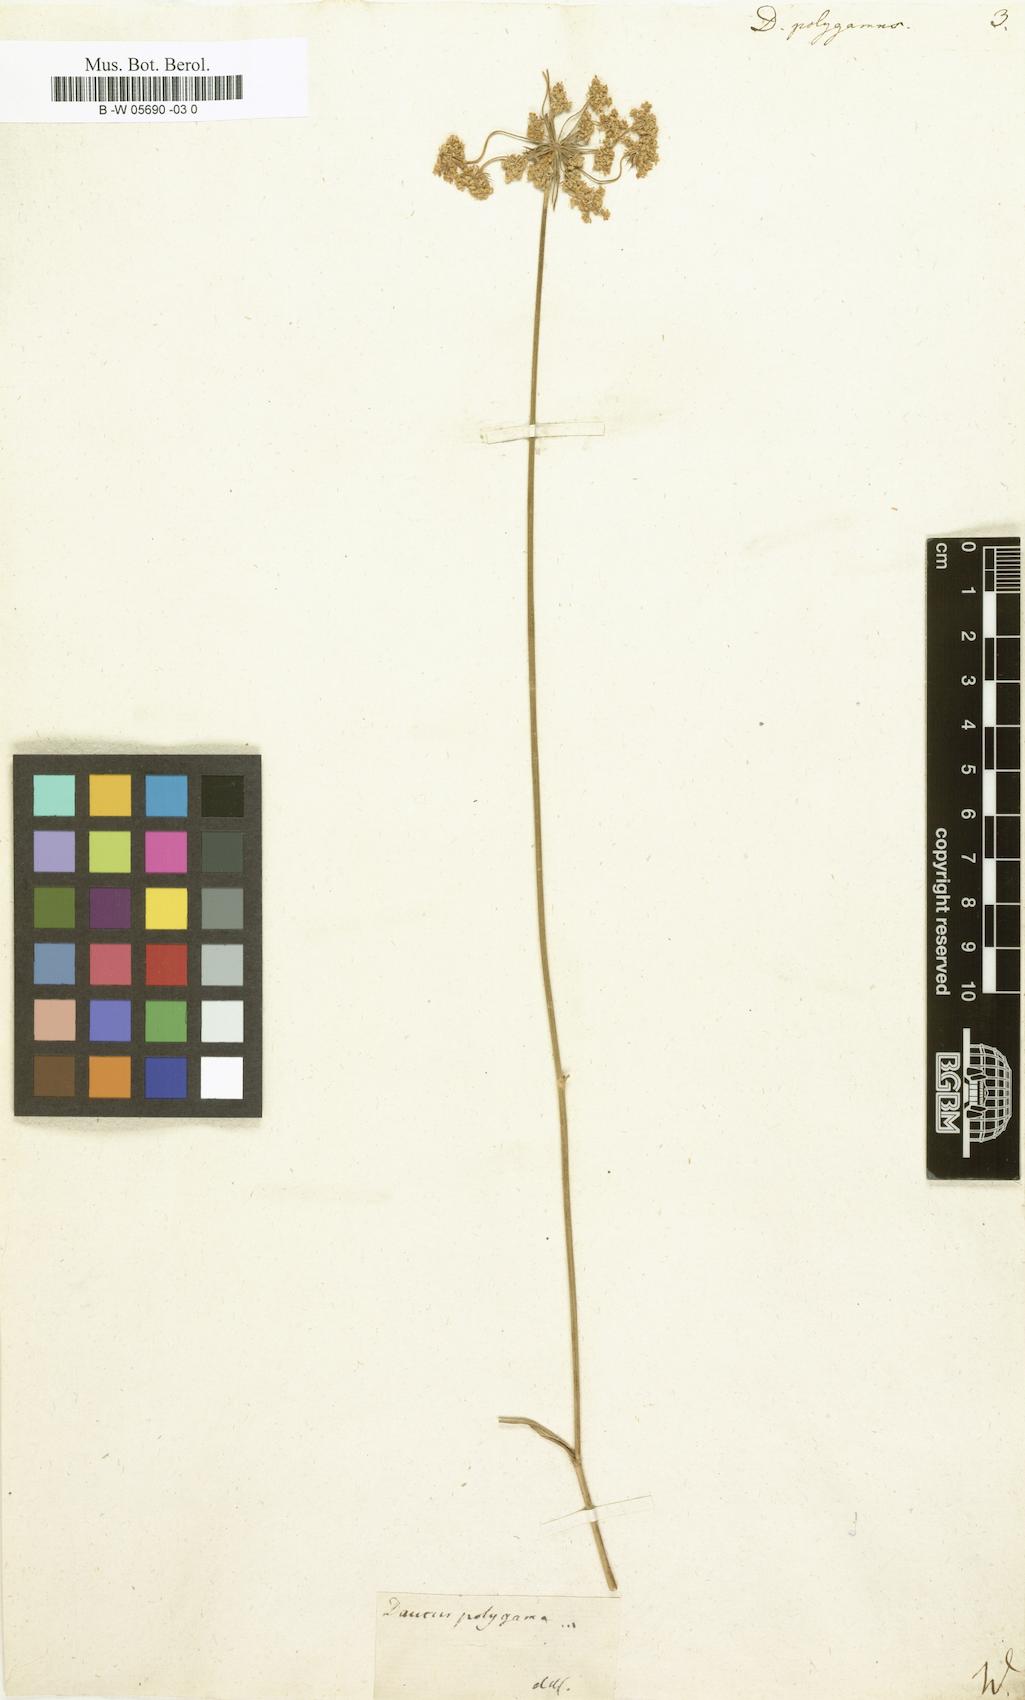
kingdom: Plantae
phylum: Tracheophyta
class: Magnoliopsida
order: Apiales
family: Apiaceae
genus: Daucus
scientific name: Daucus carota
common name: Wild carrot
